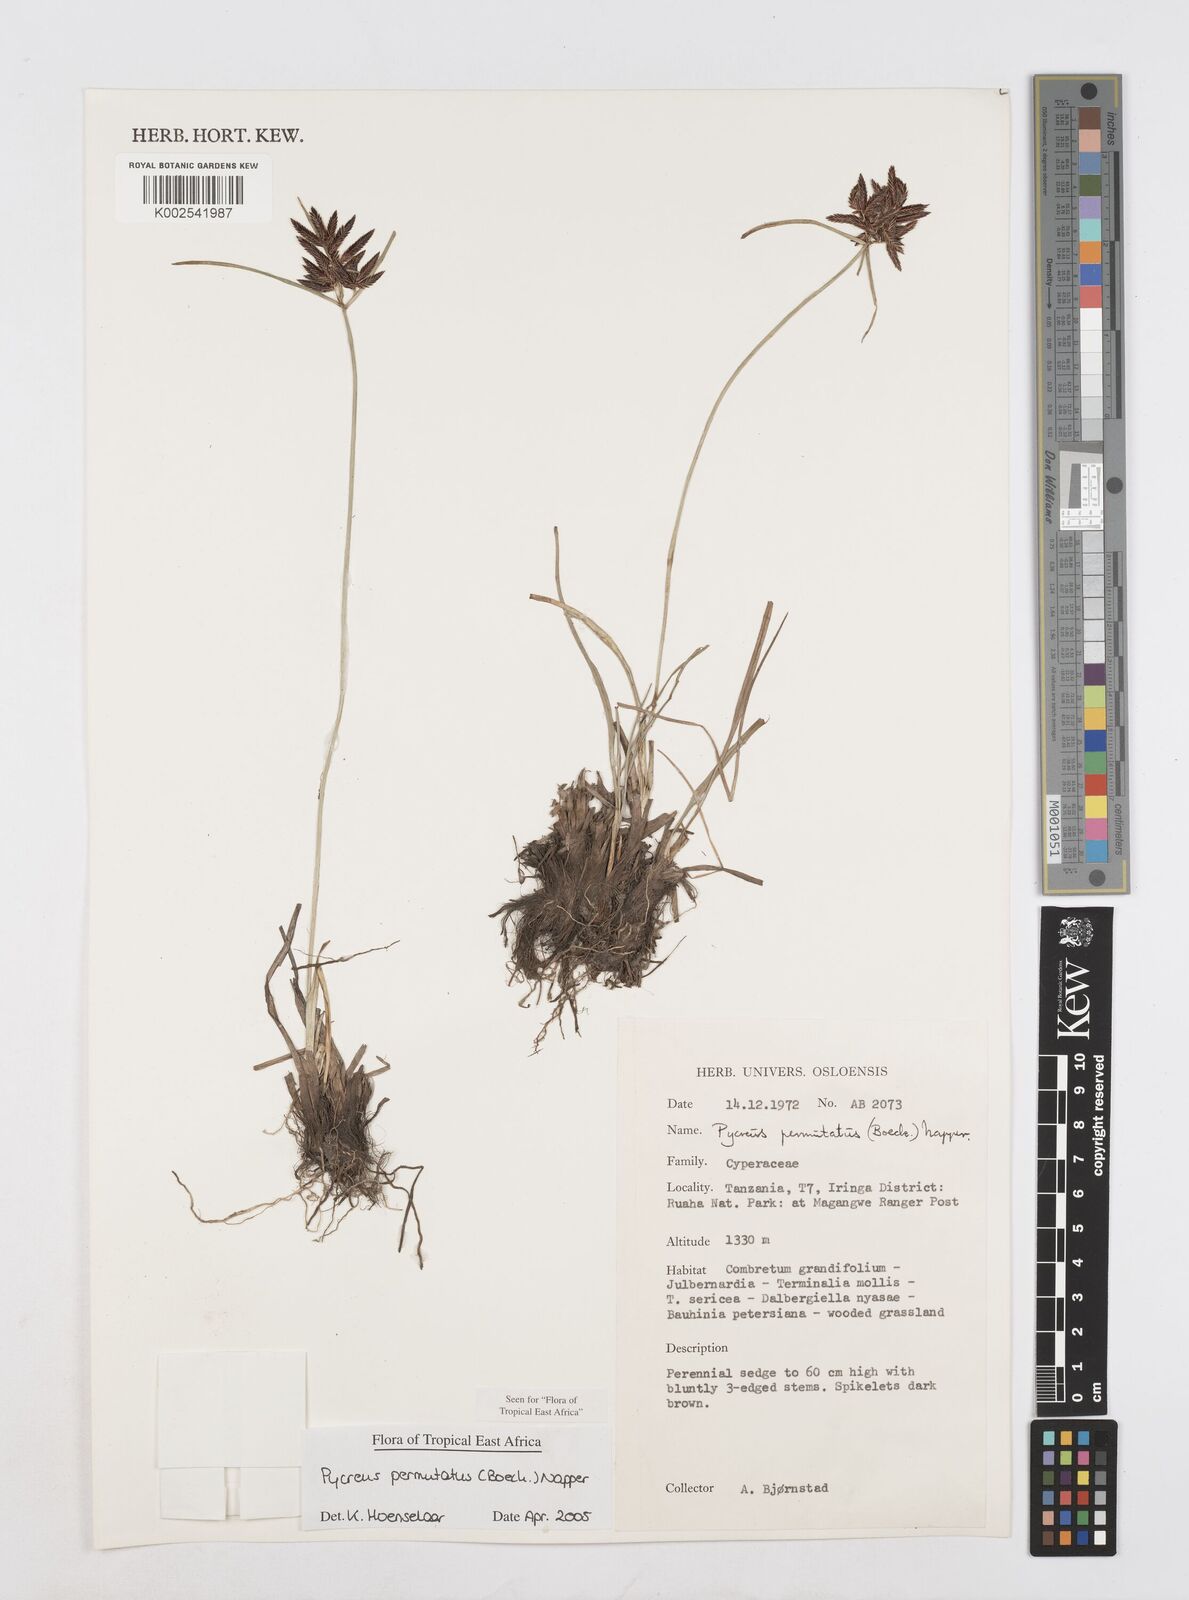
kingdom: Plantae
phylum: Tracheophyta
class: Liliopsida
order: Poales
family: Cyperaceae
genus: Cyperus
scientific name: Cyperus nigricans
